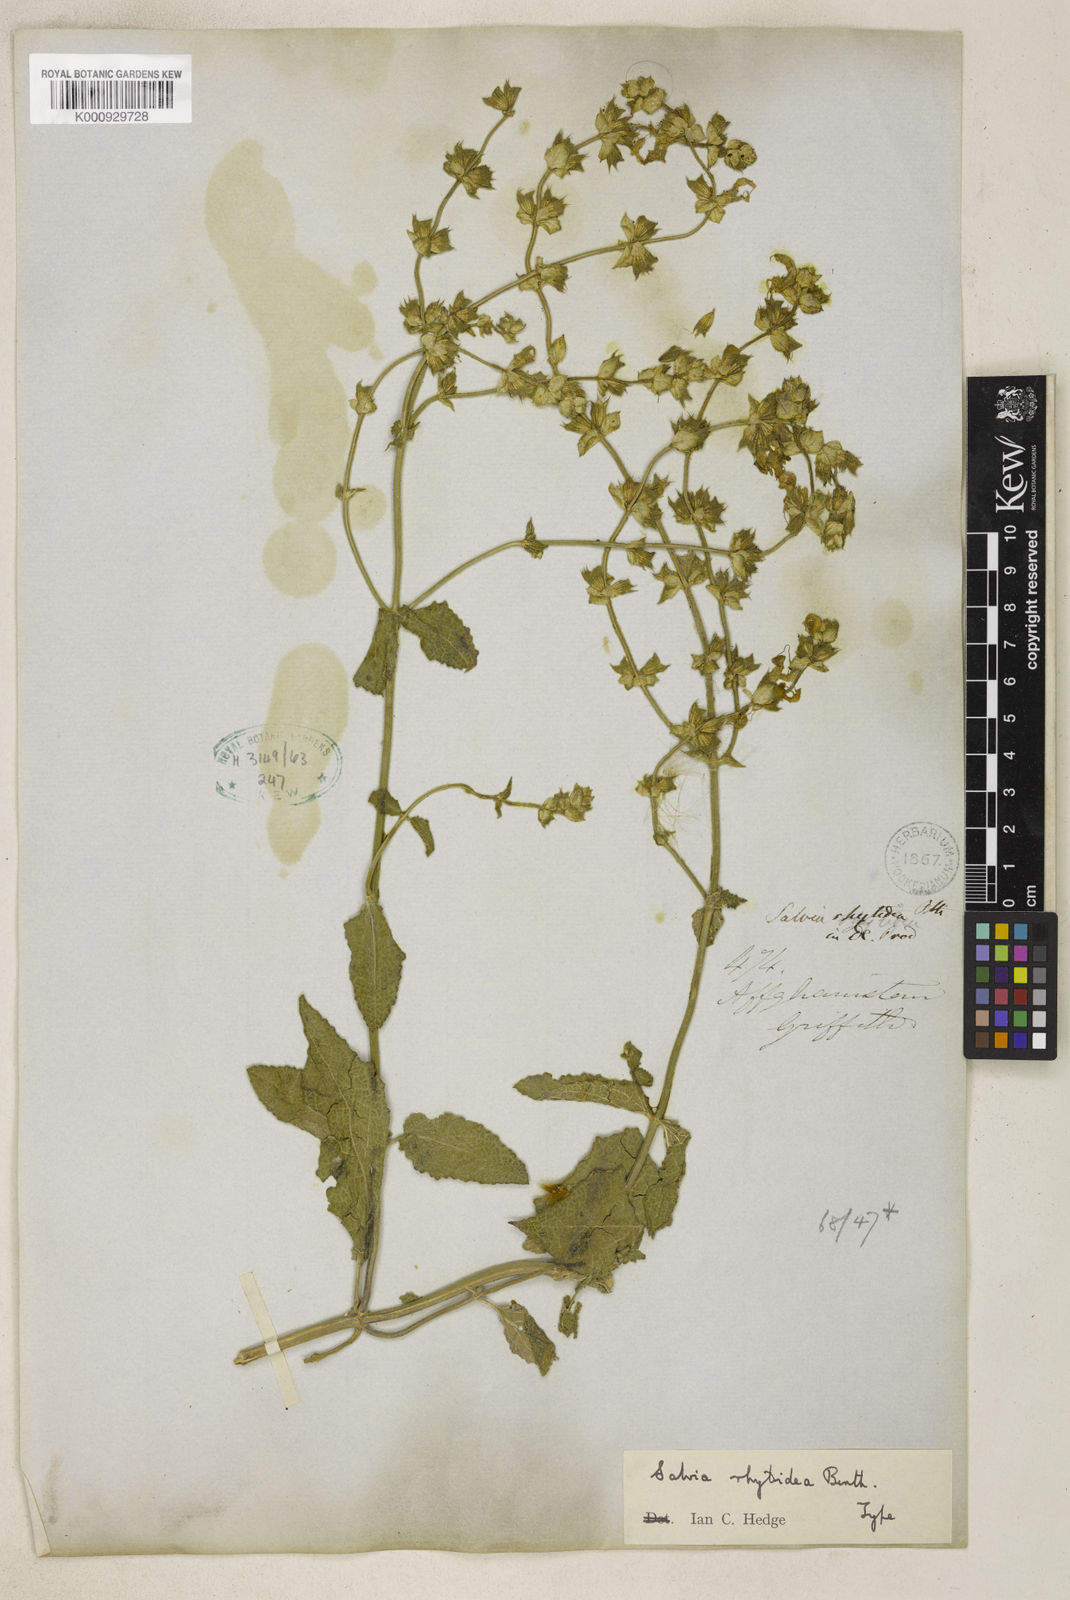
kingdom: Plantae
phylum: Tracheophyta
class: Magnoliopsida
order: Lamiales
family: Lamiaceae
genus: Salvia
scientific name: Salvia rhytidea
